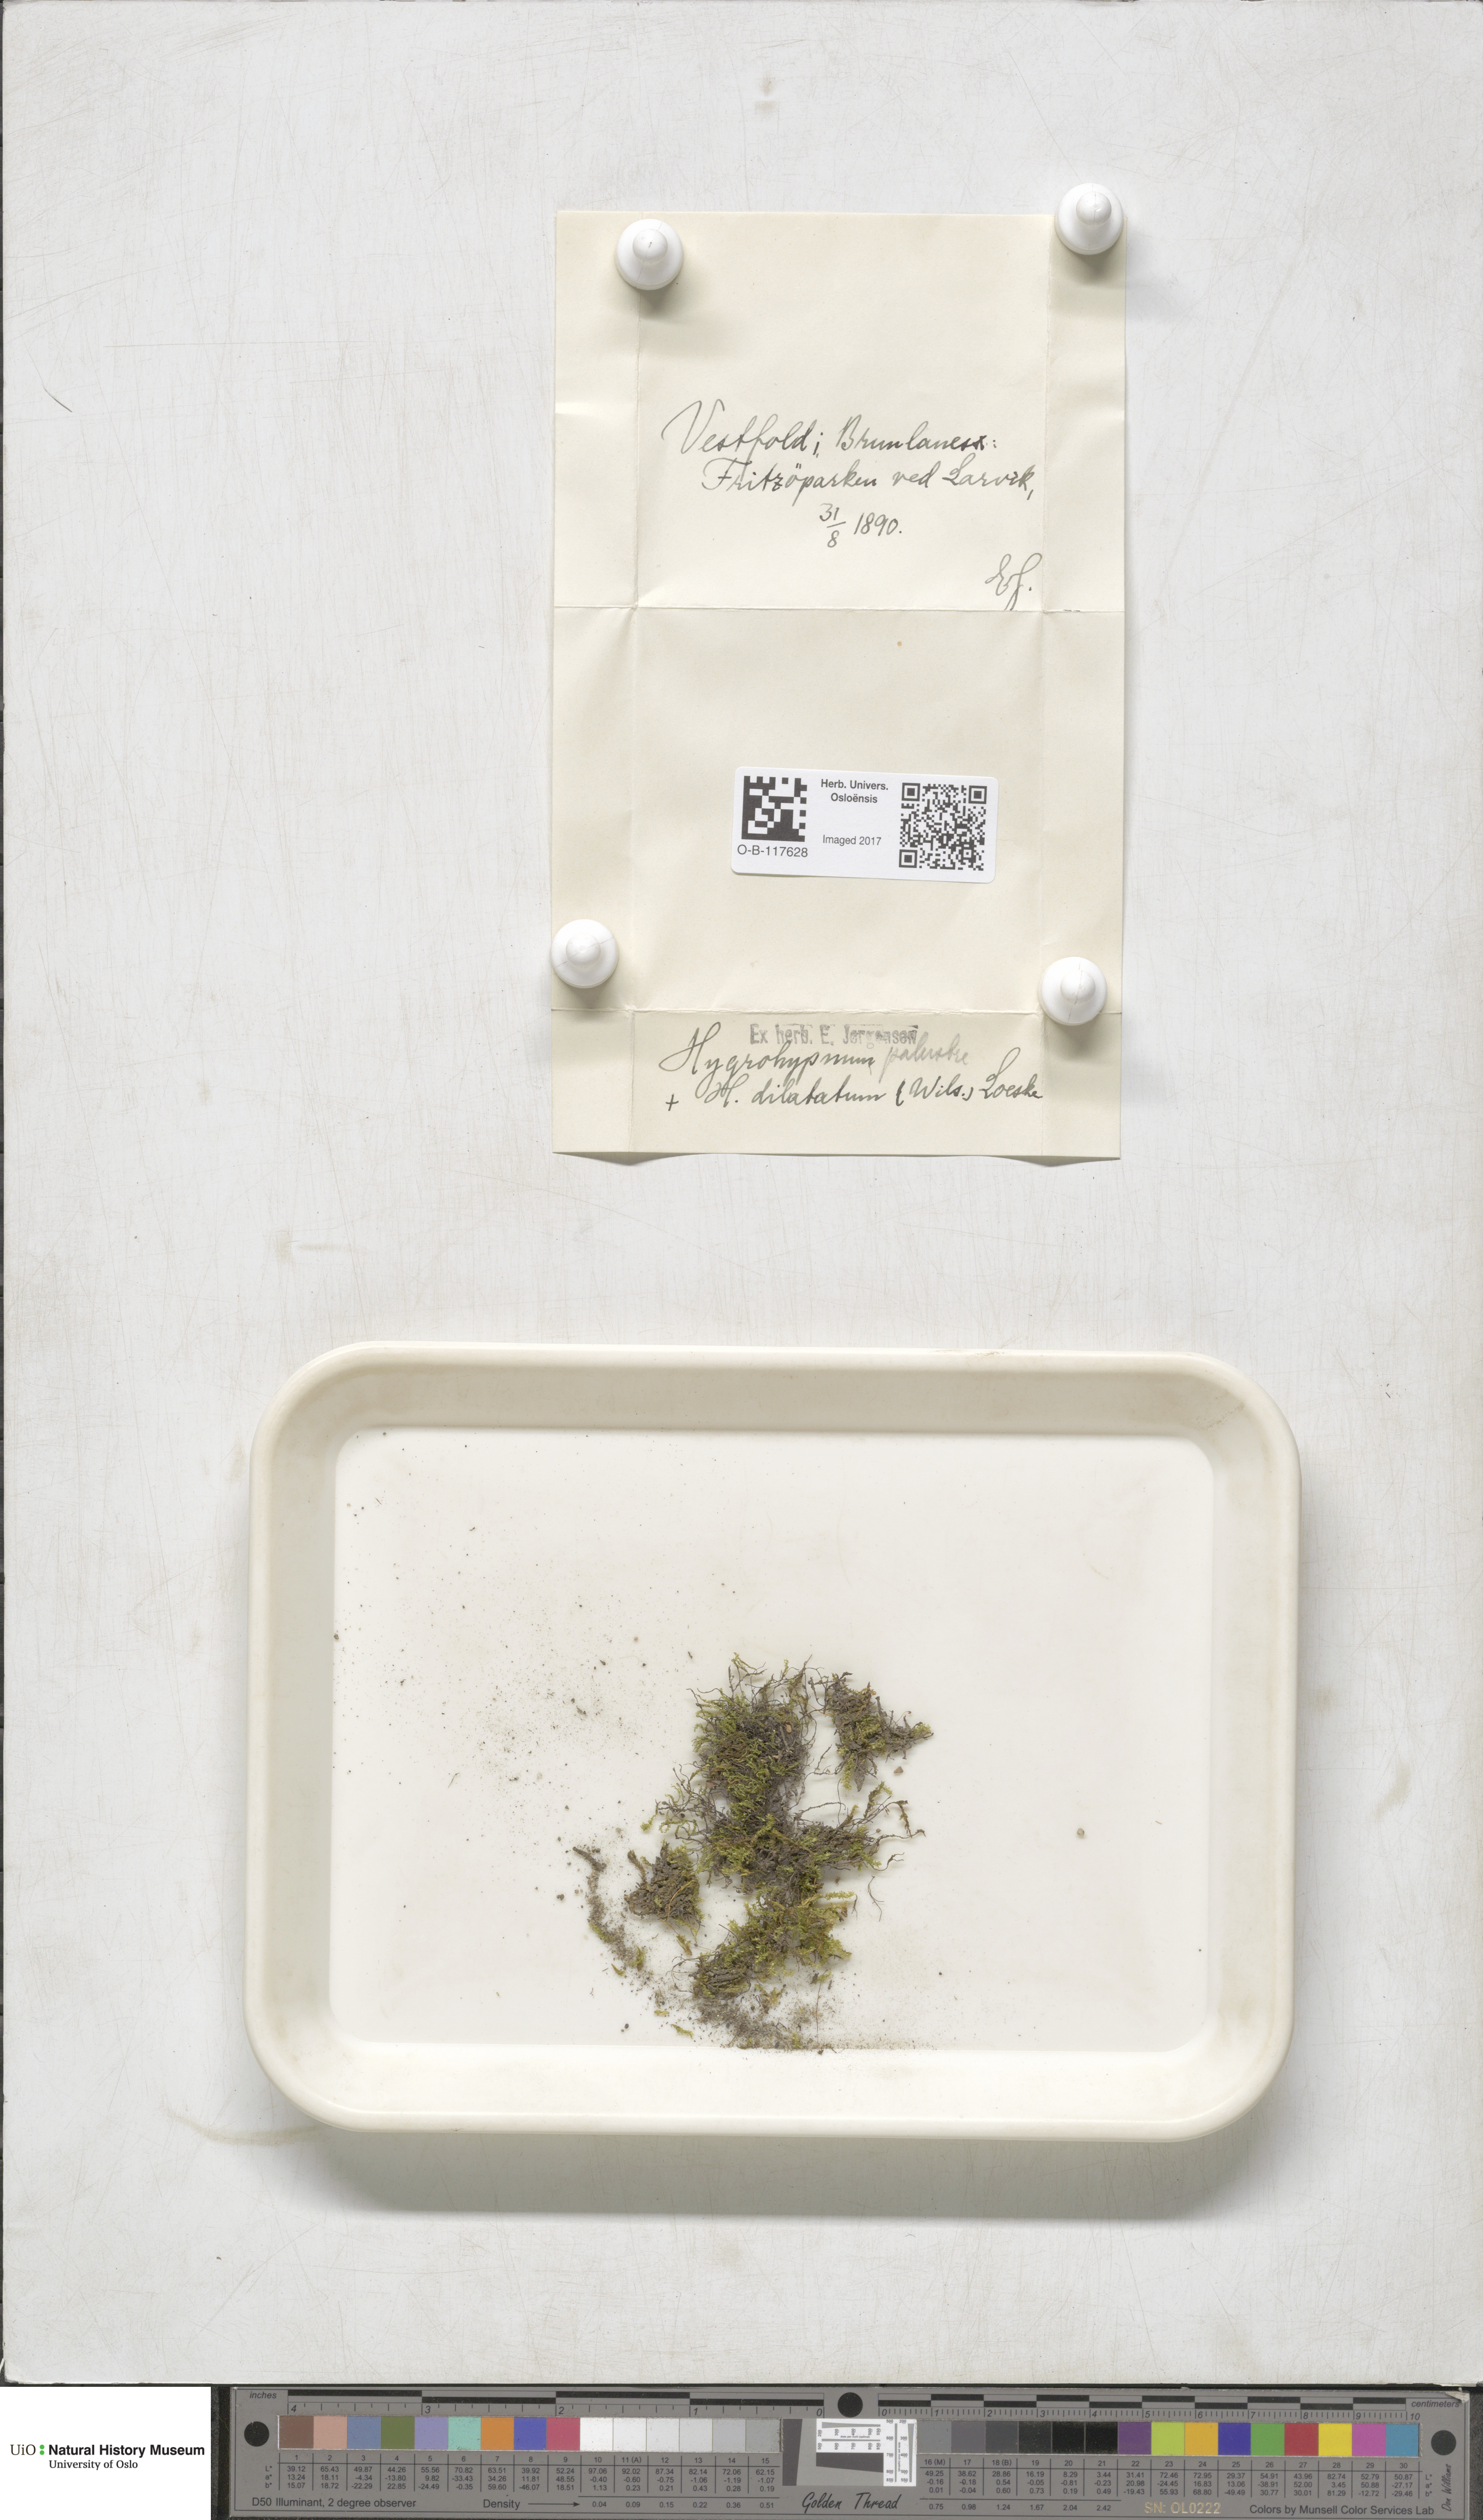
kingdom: Plantae
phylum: Bryophyta
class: Bryopsida
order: Hypnales
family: Amblystegiaceae
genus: Hygrohypnum
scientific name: Hygrohypnum luridum
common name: Drab brook moss
